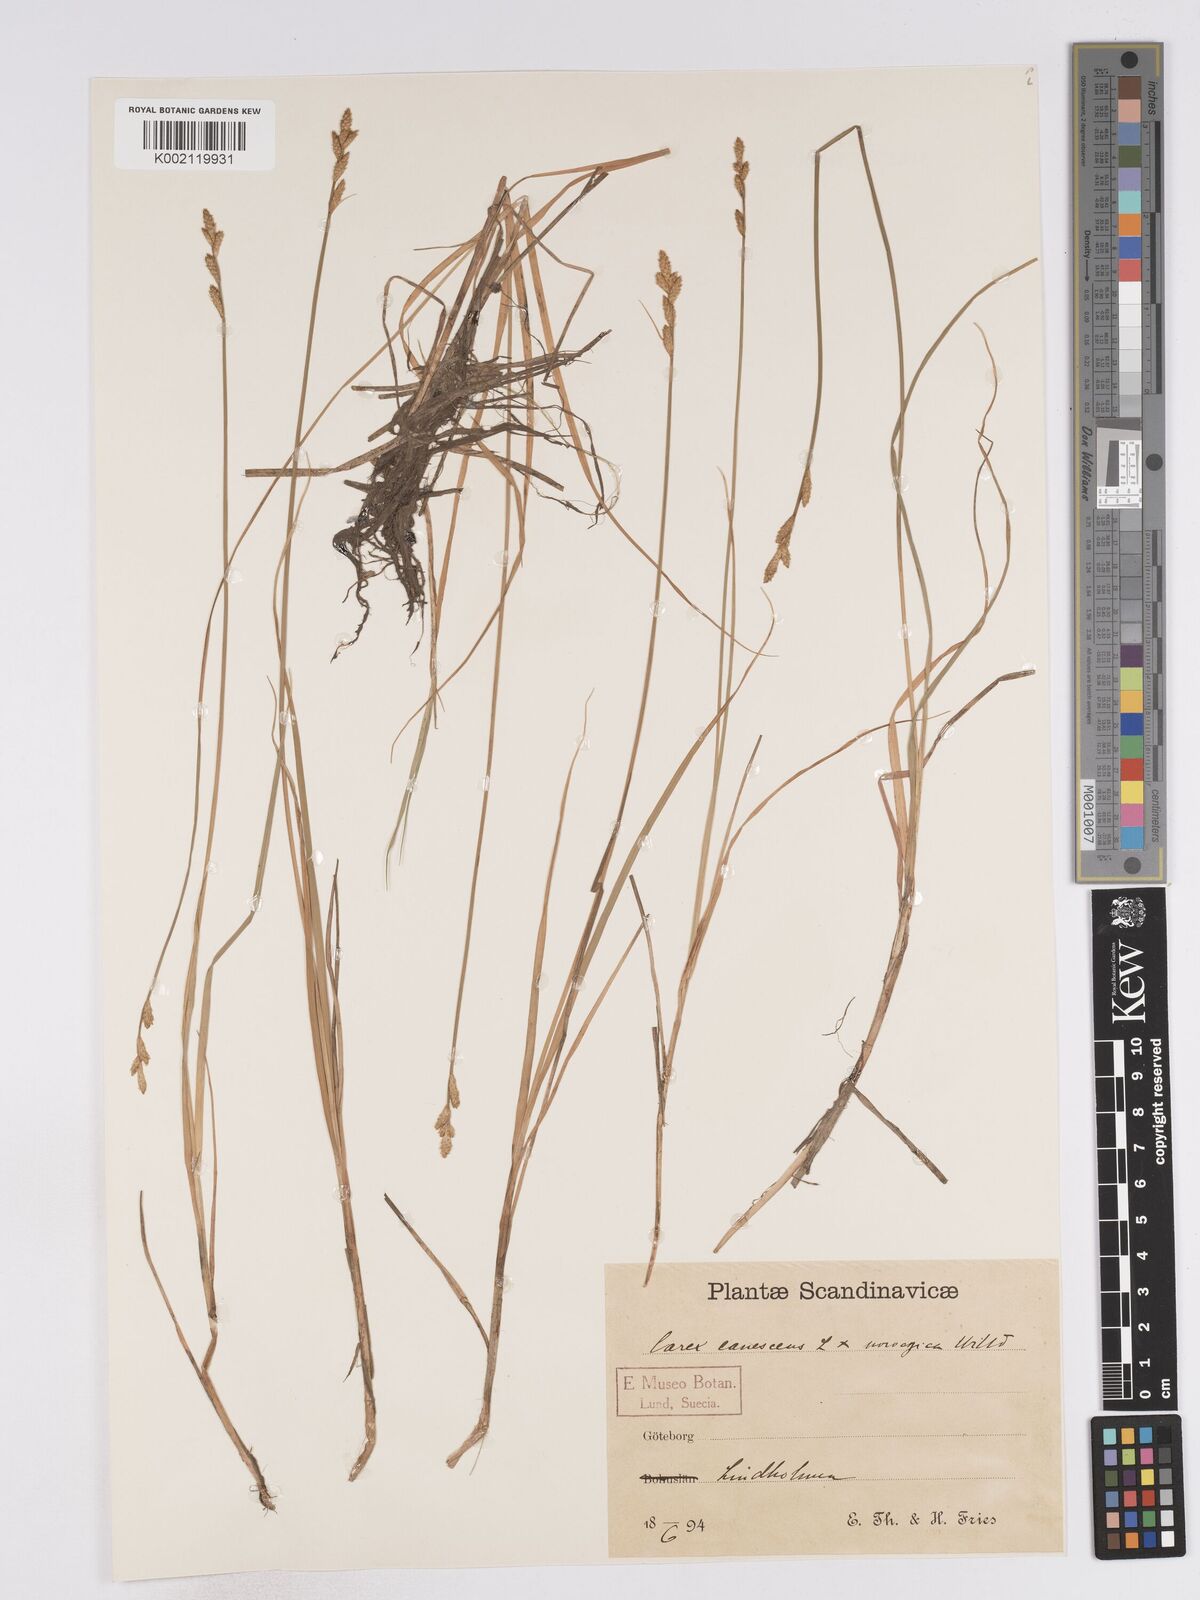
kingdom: Plantae
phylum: Tracheophyta
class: Liliopsida
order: Poales
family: Cyperaceae
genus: Carex
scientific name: Carex curta
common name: White sedge
